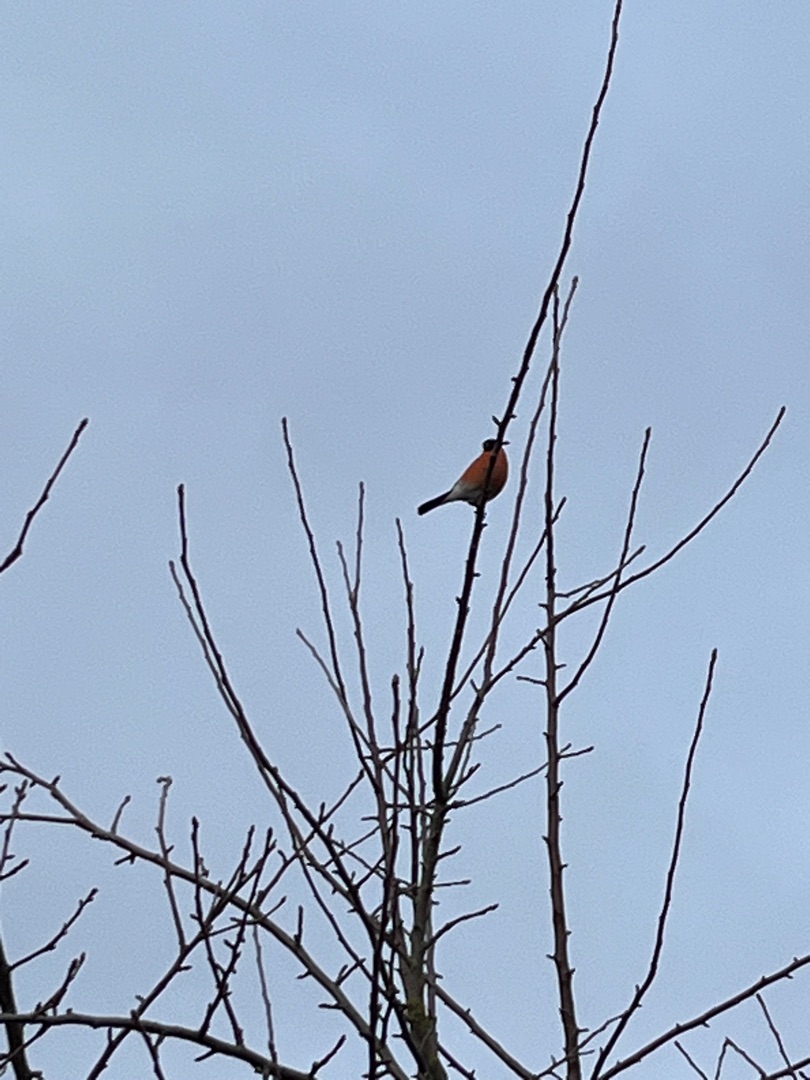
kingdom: Animalia
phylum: Chordata
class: Aves
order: Passeriformes
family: Fringillidae
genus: Pyrrhula
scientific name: Pyrrhula pyrrhula
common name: Dompap
